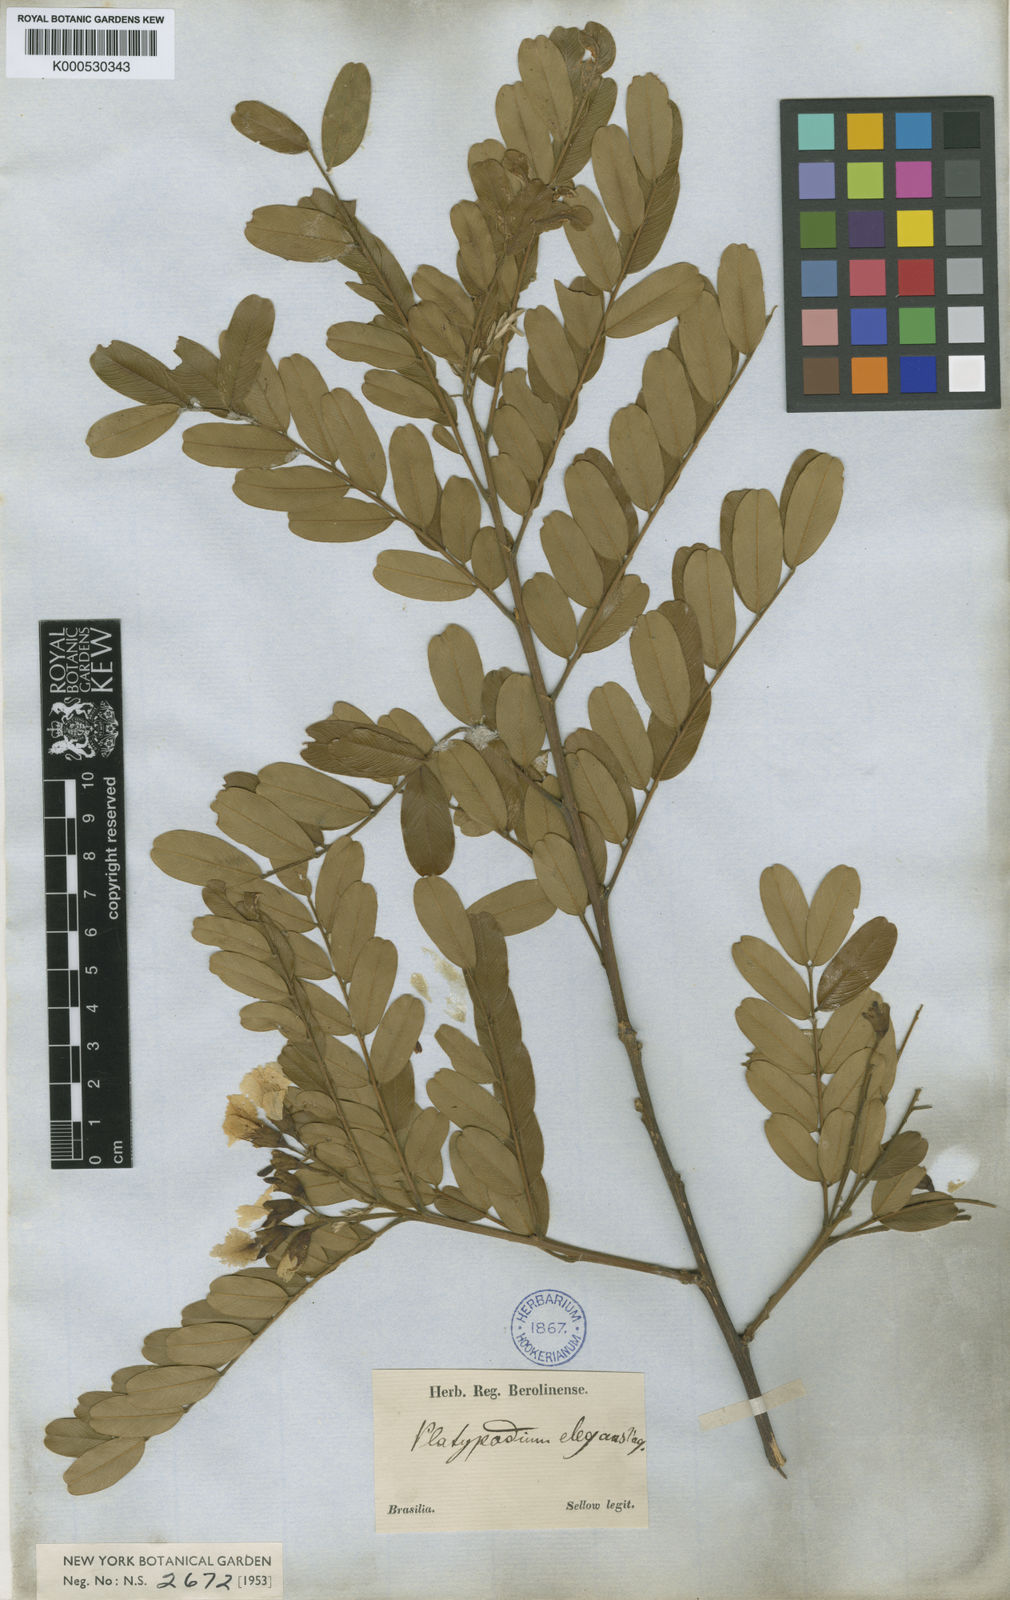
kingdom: Plantae
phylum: Tracheophyta
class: Magnoliopsida
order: Fabales
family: Fabaceae
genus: Platypodium
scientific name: Platypodium elegans
